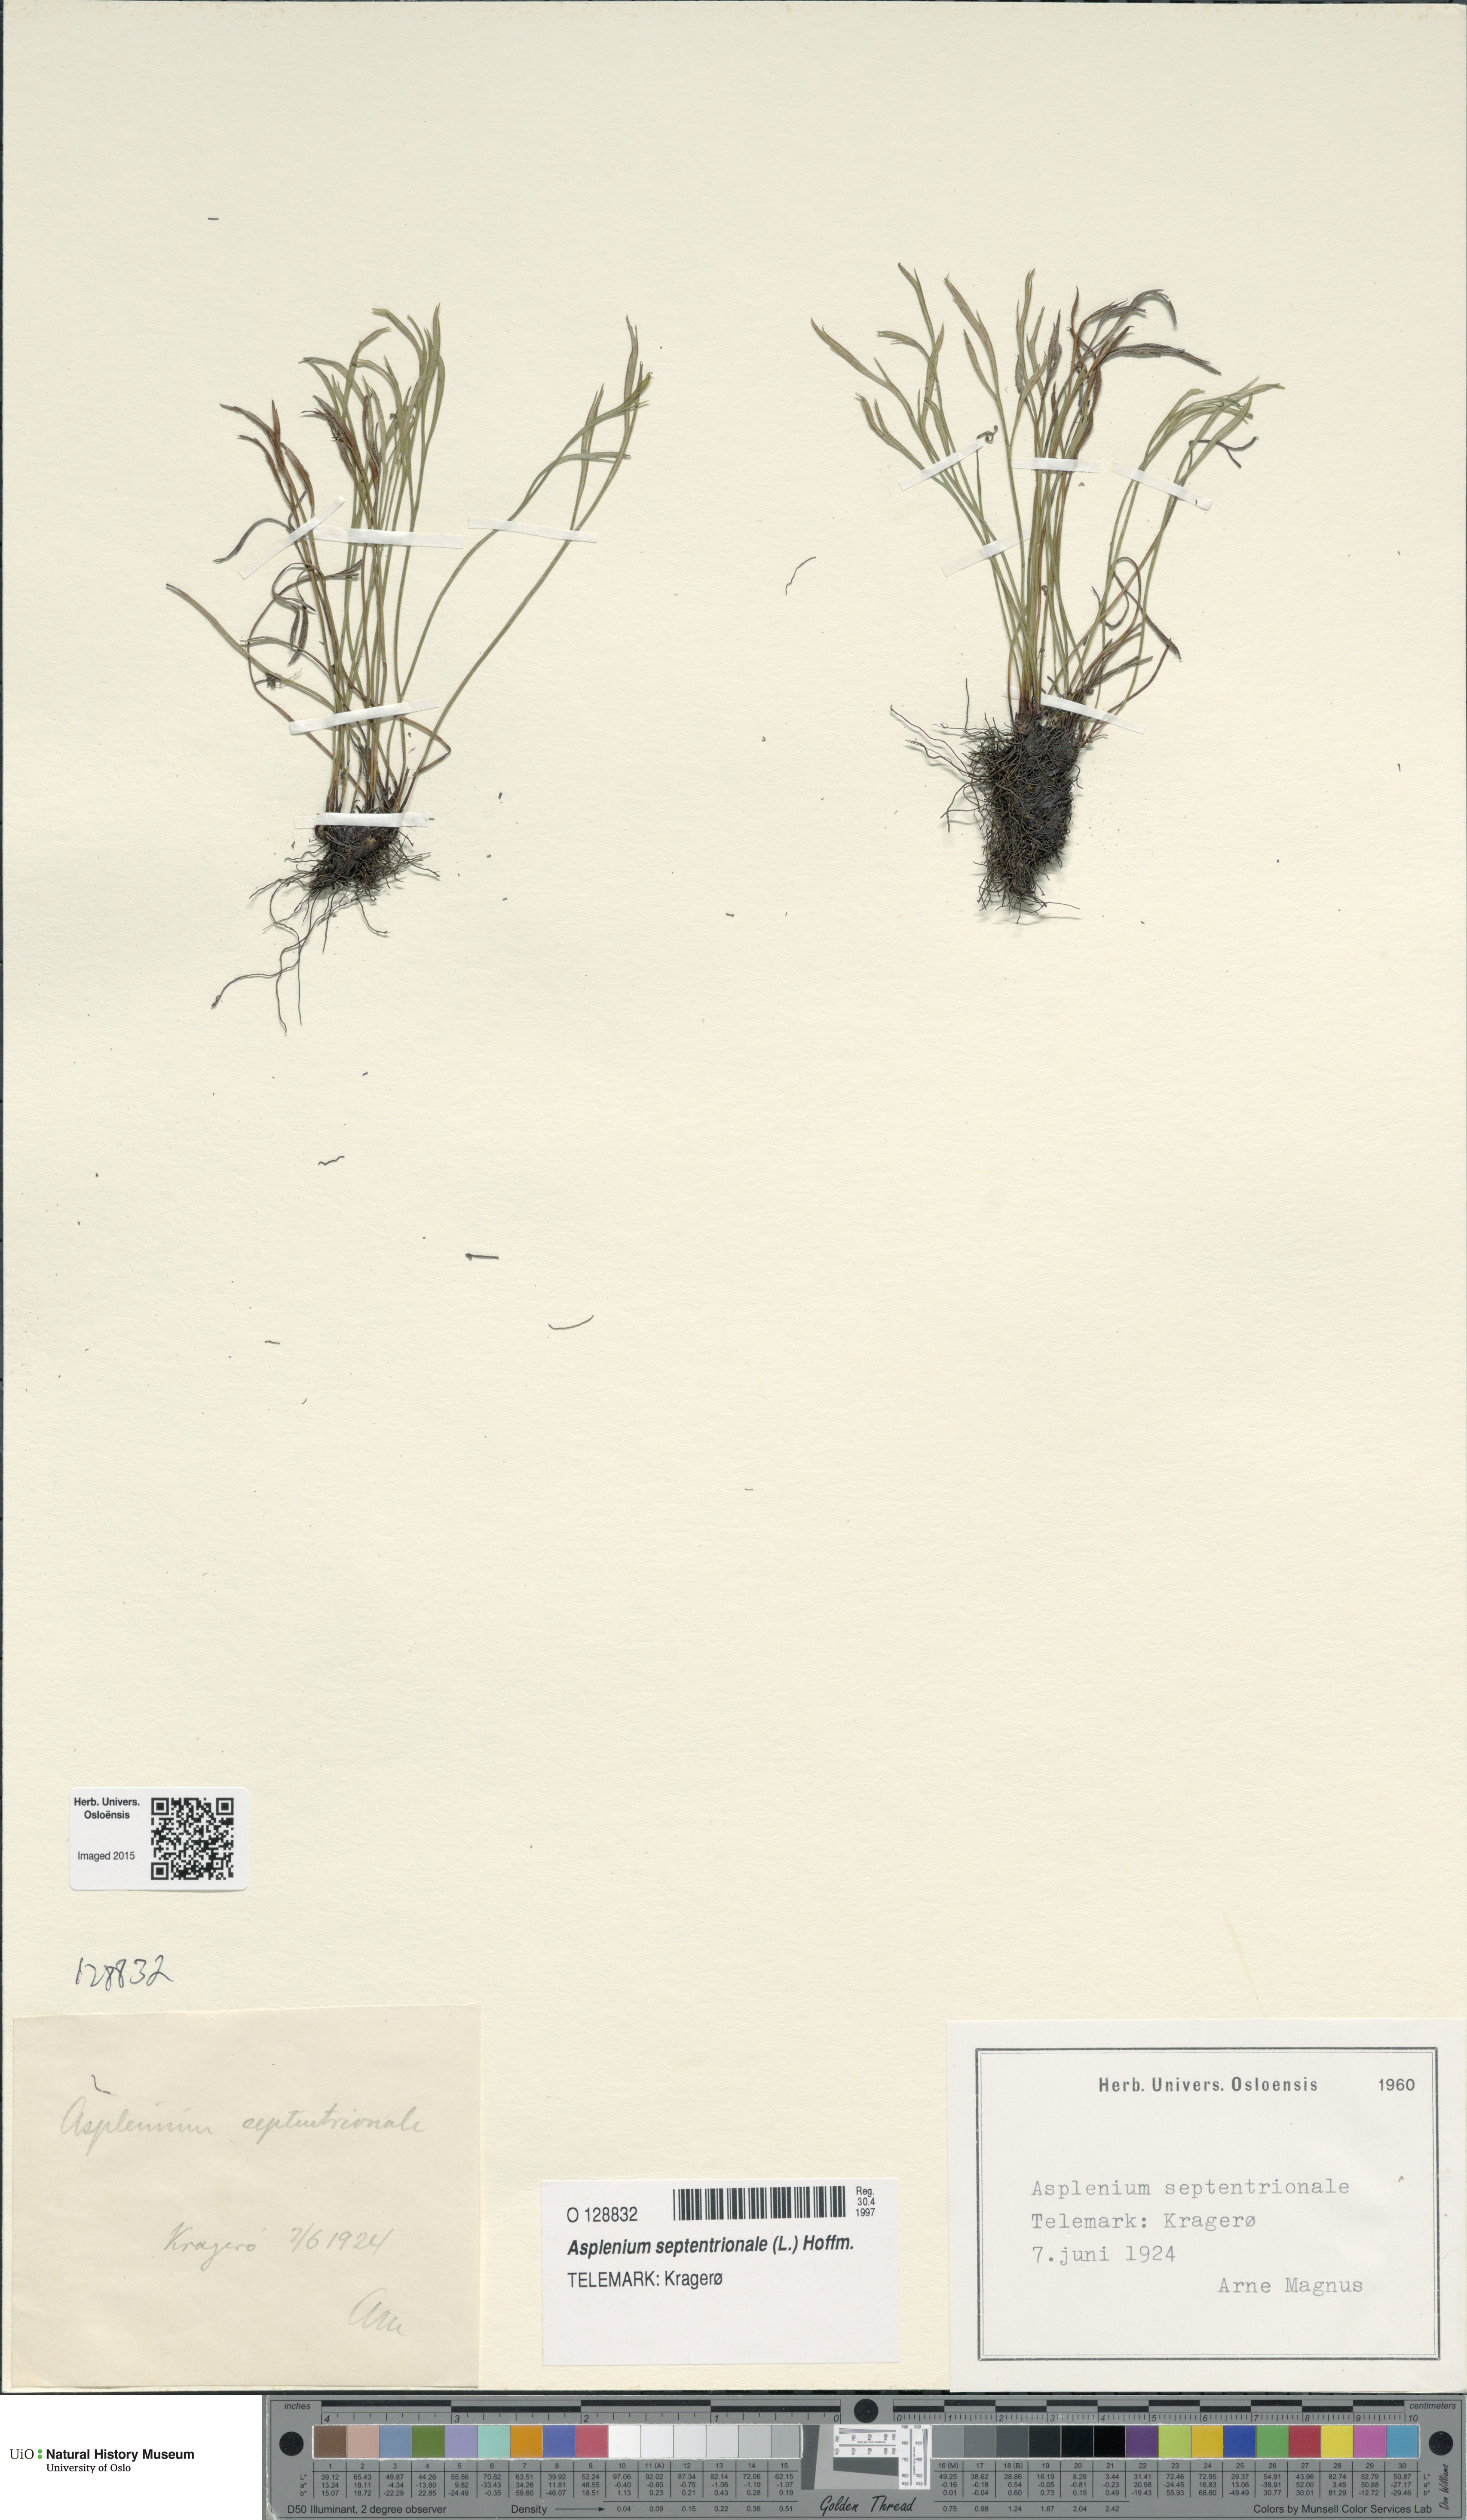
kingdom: Plantae
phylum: Tracheophyta
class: Polypodiopsida
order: Polypodiales
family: Aspleniaceae
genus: Asplenium
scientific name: Asplenium septentrionale
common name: Forked spleenwort
